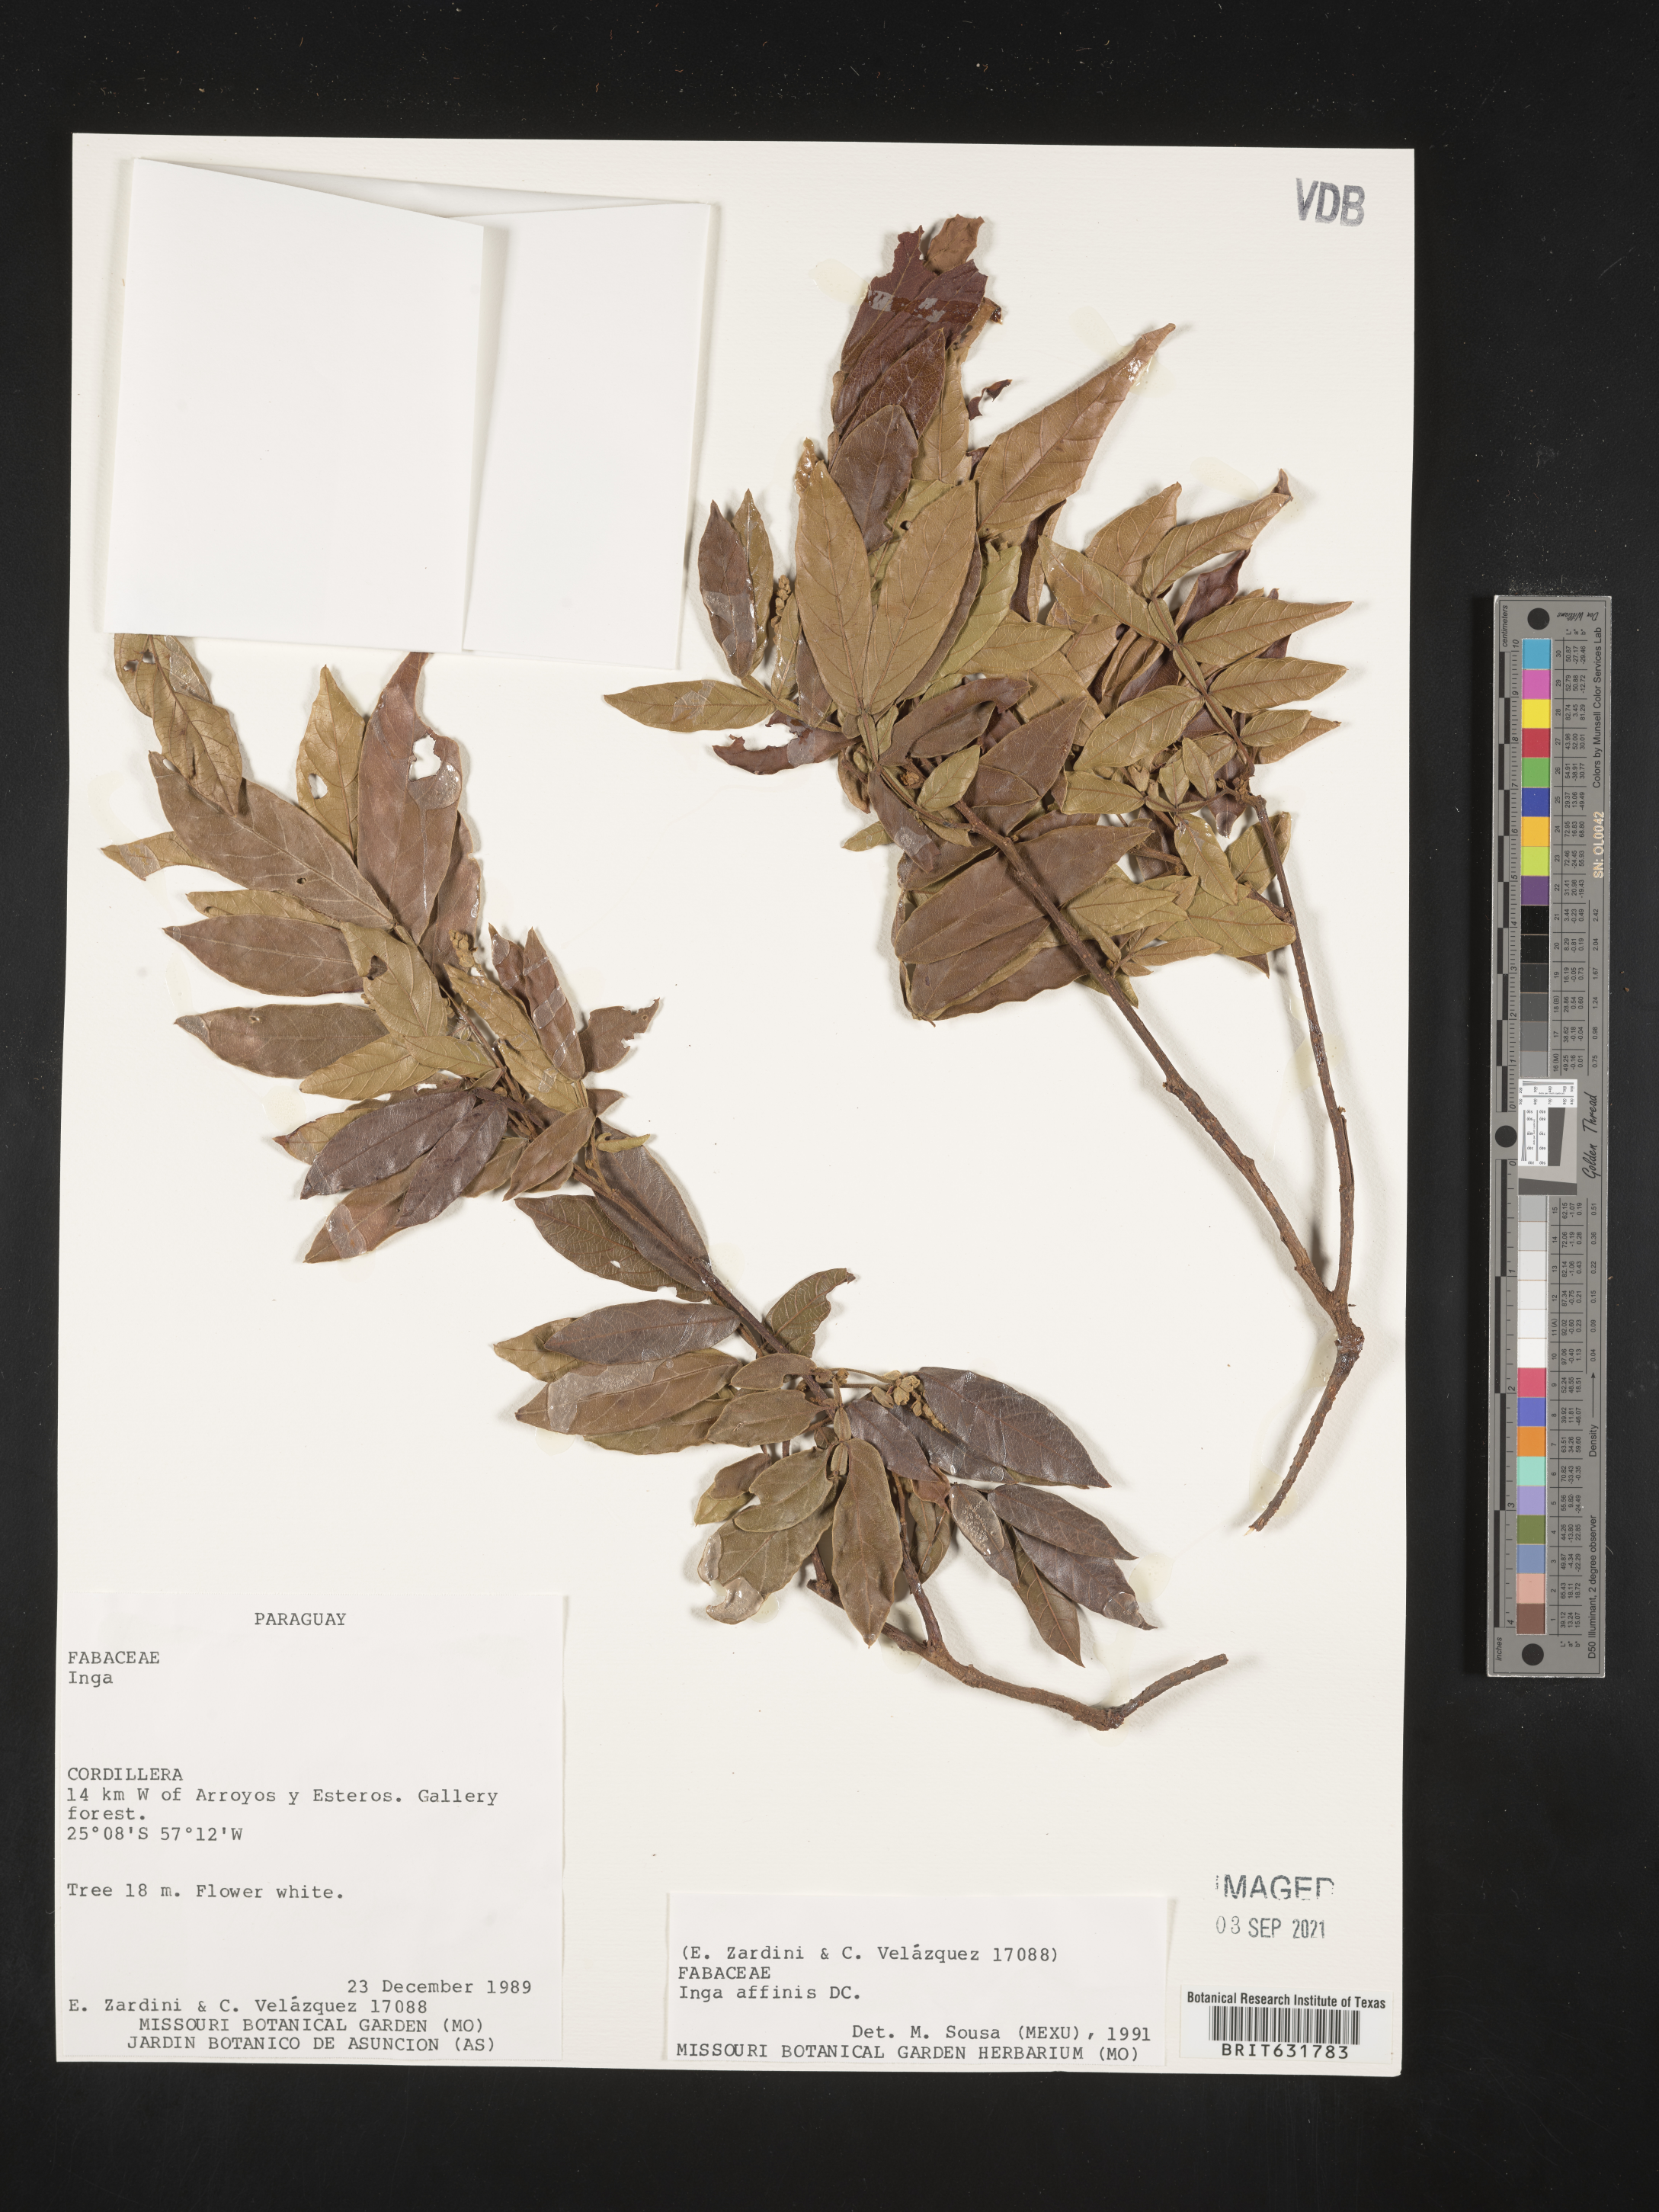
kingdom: Plantae
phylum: Tracheophyta
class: Magnoliopsida
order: Fabales
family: Fabaceae
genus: Inga
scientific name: Inga
